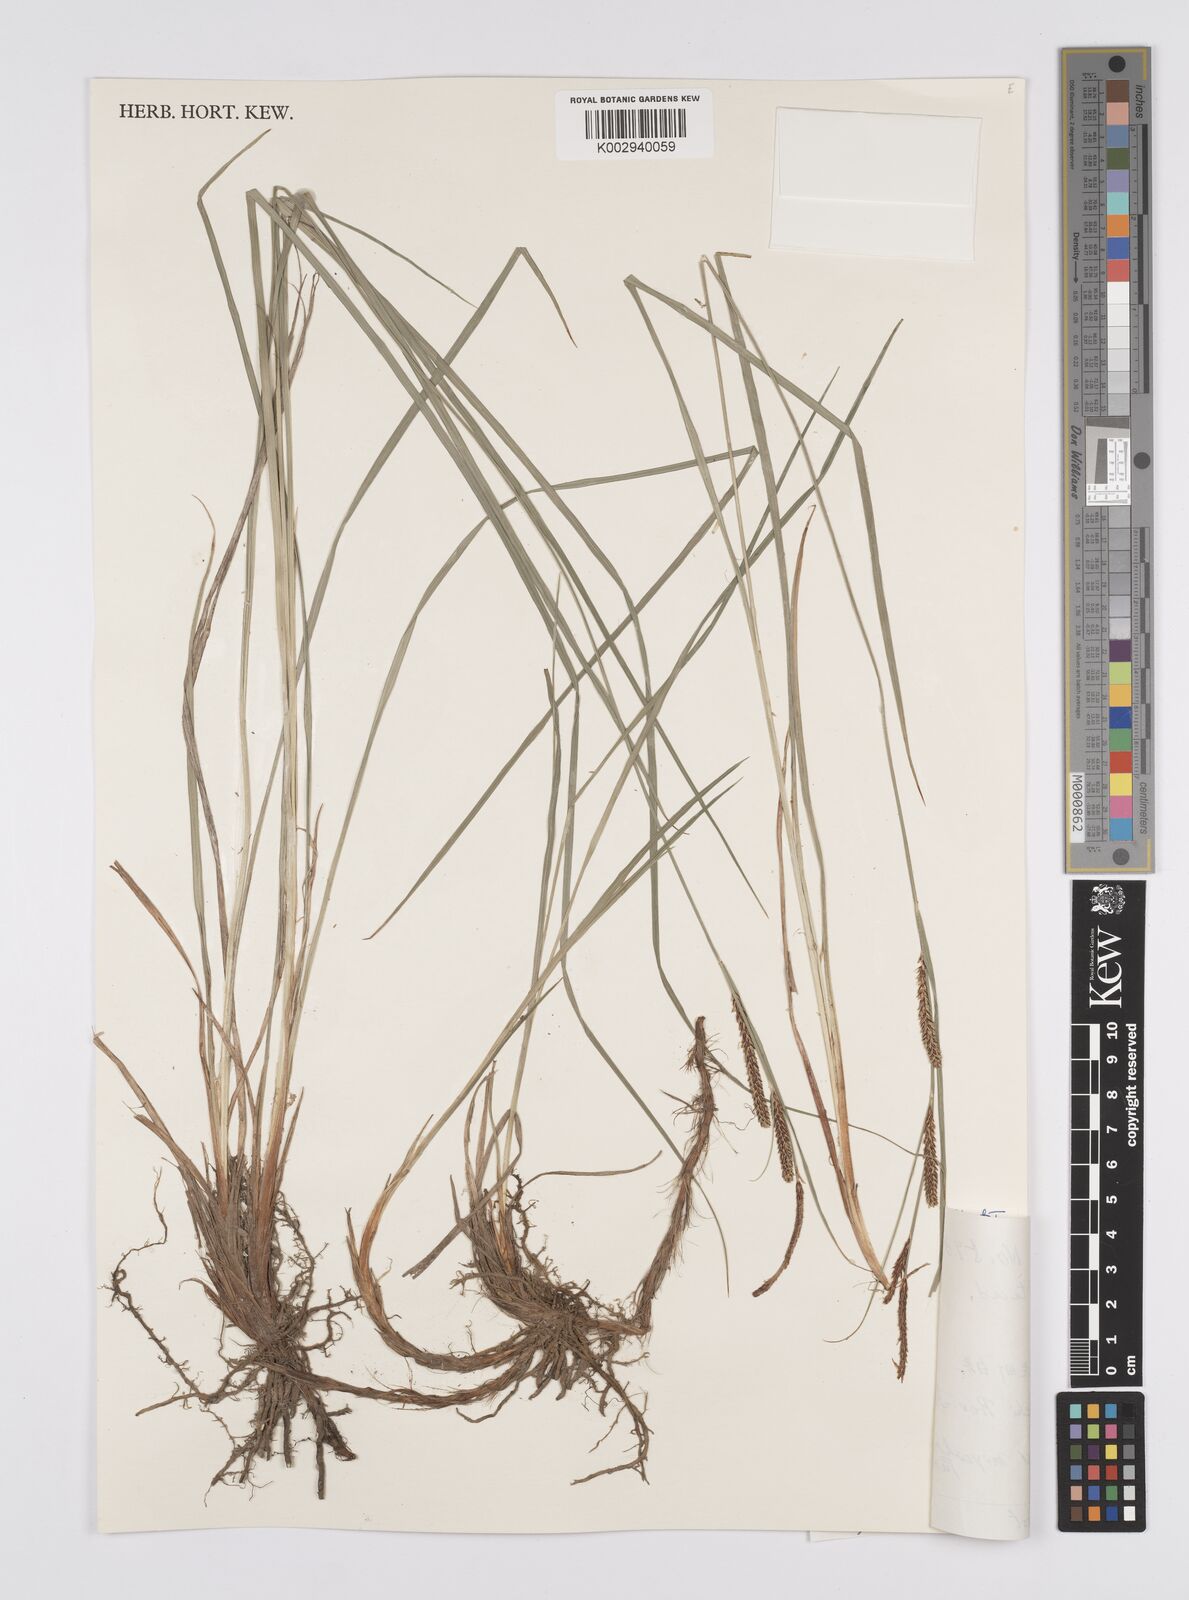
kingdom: Plantae
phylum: Tracheophyta
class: Liliopsida
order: Poales
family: Cyperaceae
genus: Carex
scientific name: Carex thunbergii
